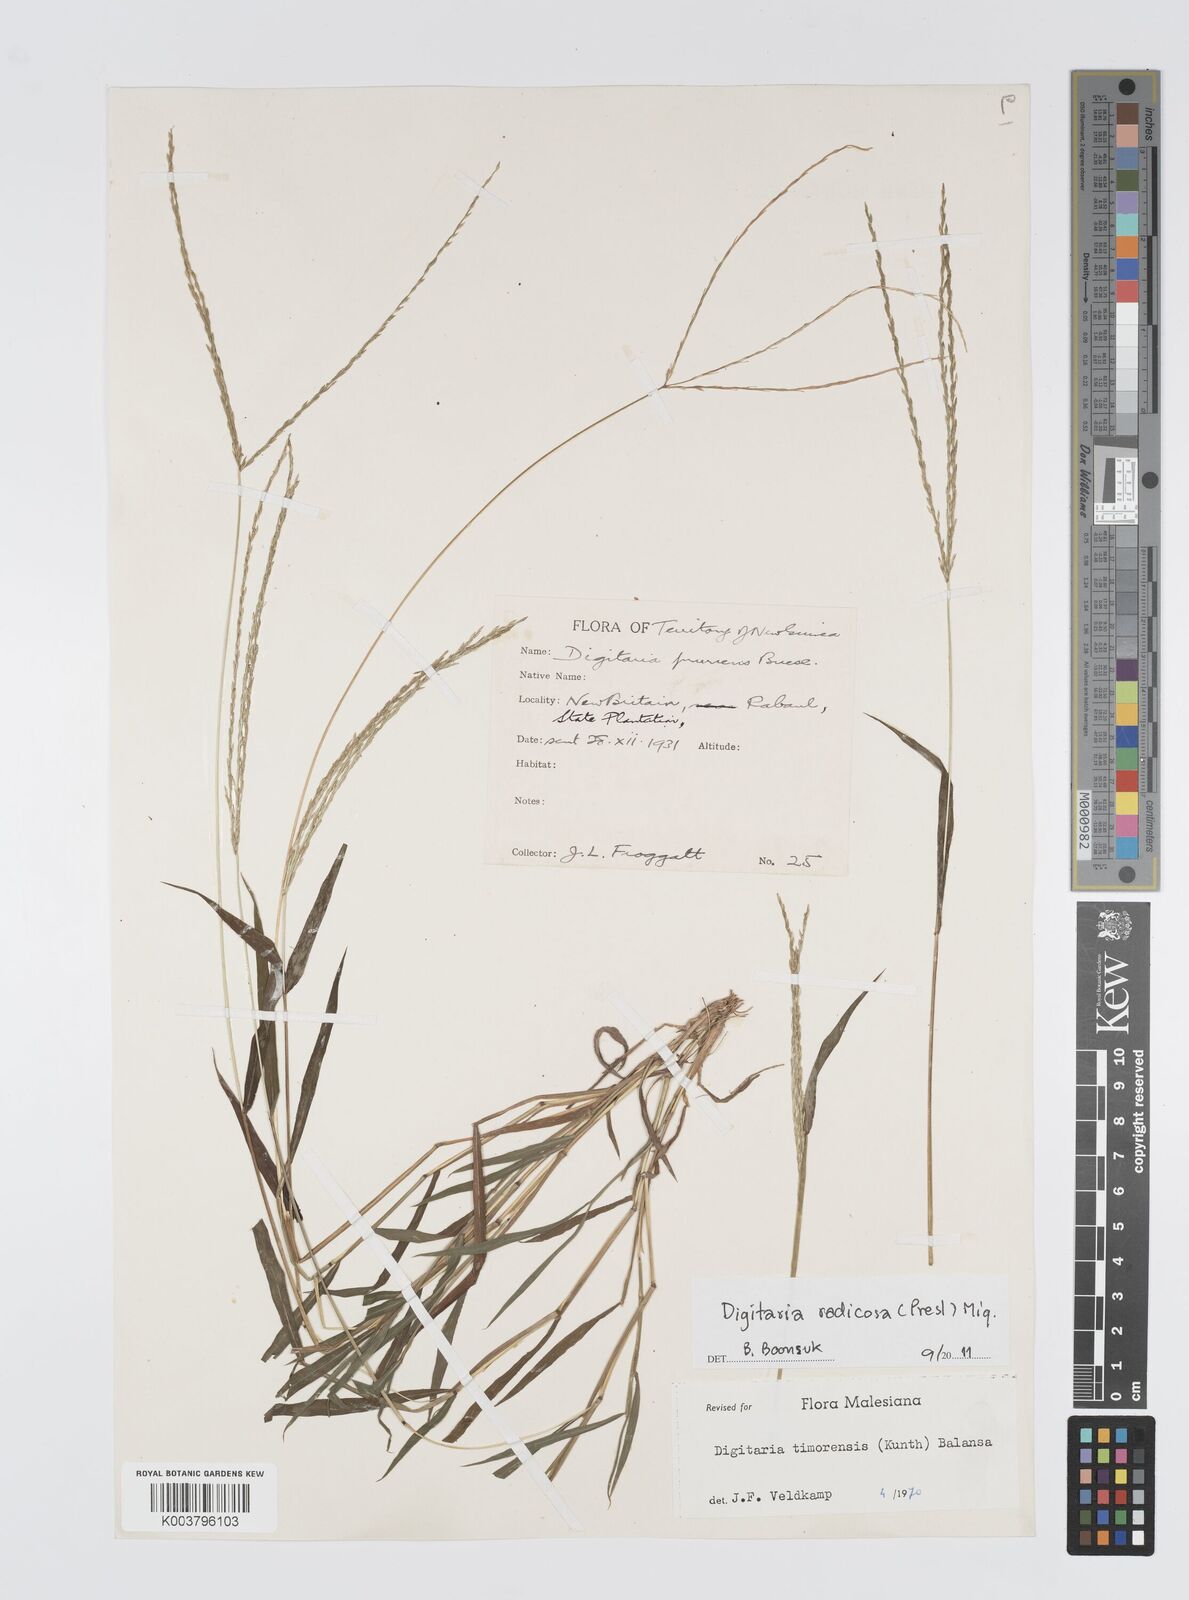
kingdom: Plantae
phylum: Tracheophyta
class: Liliopsida
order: Poales
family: Poaceae
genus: Digitaria
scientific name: Digitaria radicosa
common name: Trailing crabgrass
